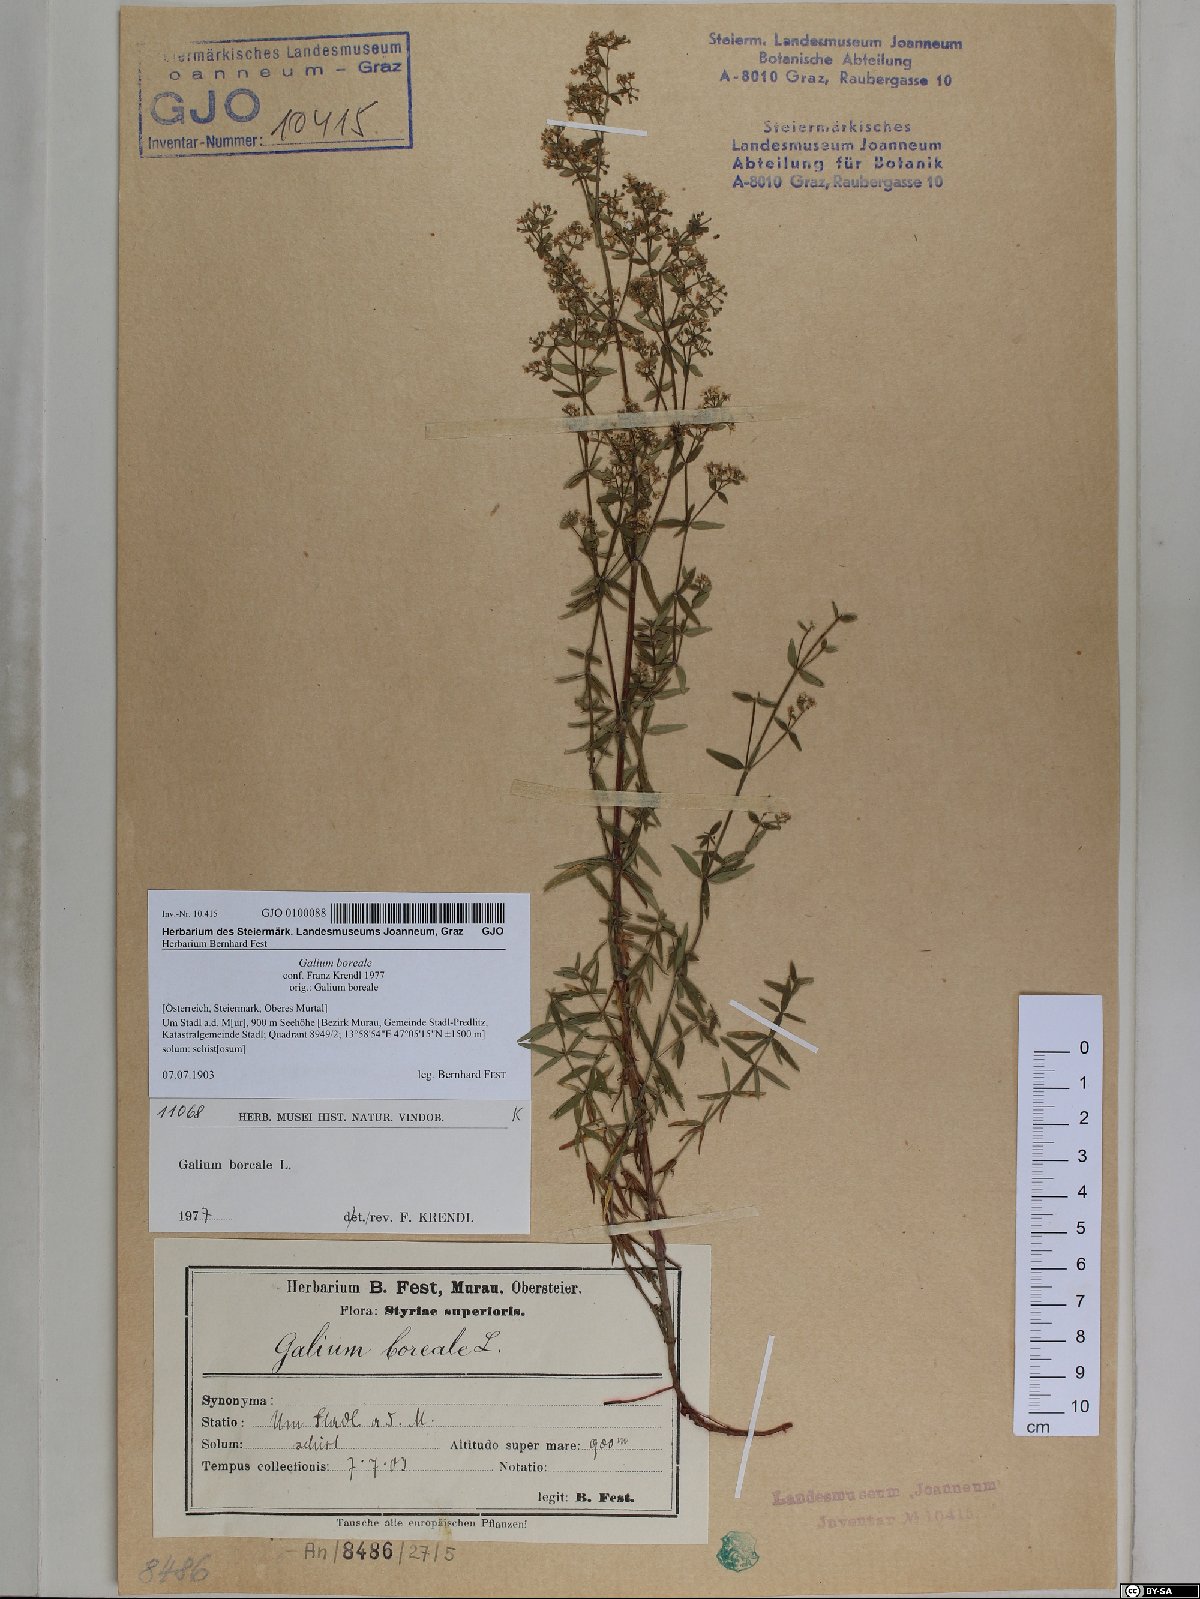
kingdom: Plantae
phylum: Tracheophyta
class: Magnoliopsida
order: Gentianales
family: Rubiaceae
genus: Galium
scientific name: Galium boreale
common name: Northern bedstraw
